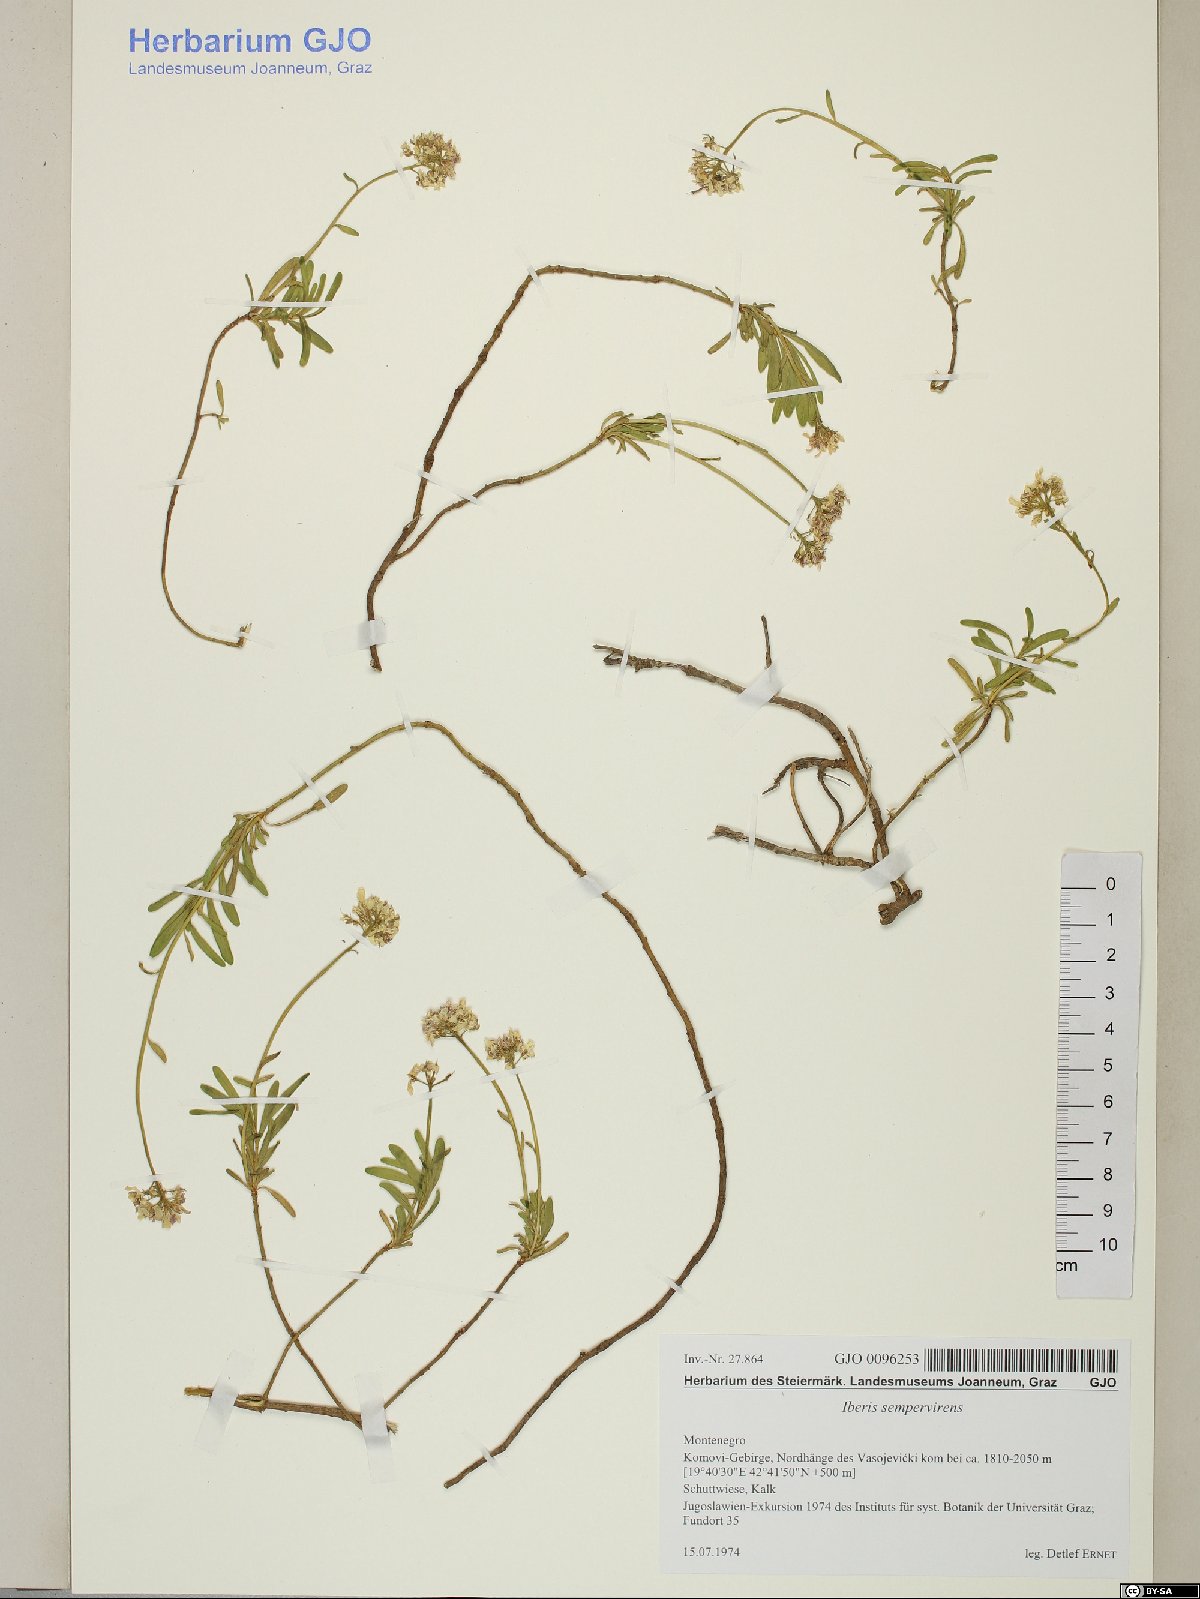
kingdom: Plantae
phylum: Tracheophyta
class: Magnoliopsida
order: Brassicales
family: Brassicaceae
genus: Iberis
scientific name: Iberis sempervirens
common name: Evergreen candytuft
